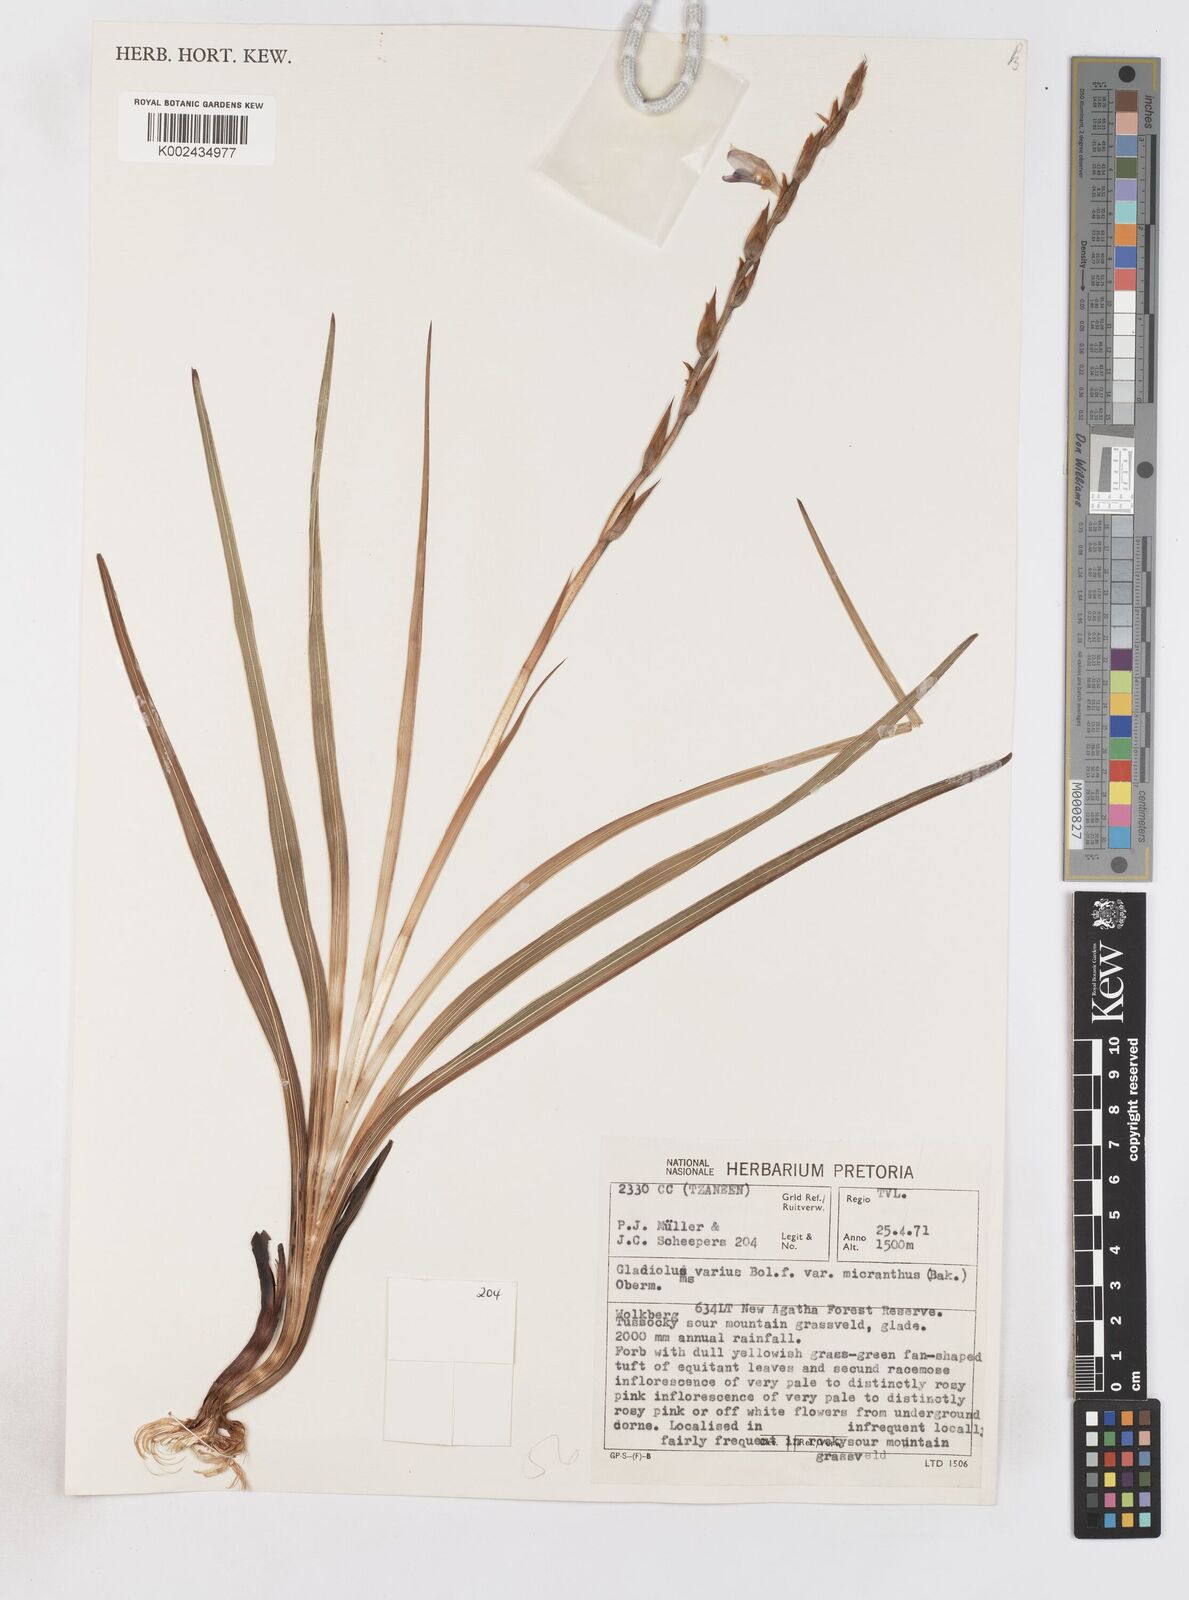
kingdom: Plantae
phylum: Tracheophyta
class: Liliopsida
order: Asparagales
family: Iridaceae
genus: Gladiolus
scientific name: Gladiolus ferrugineus
